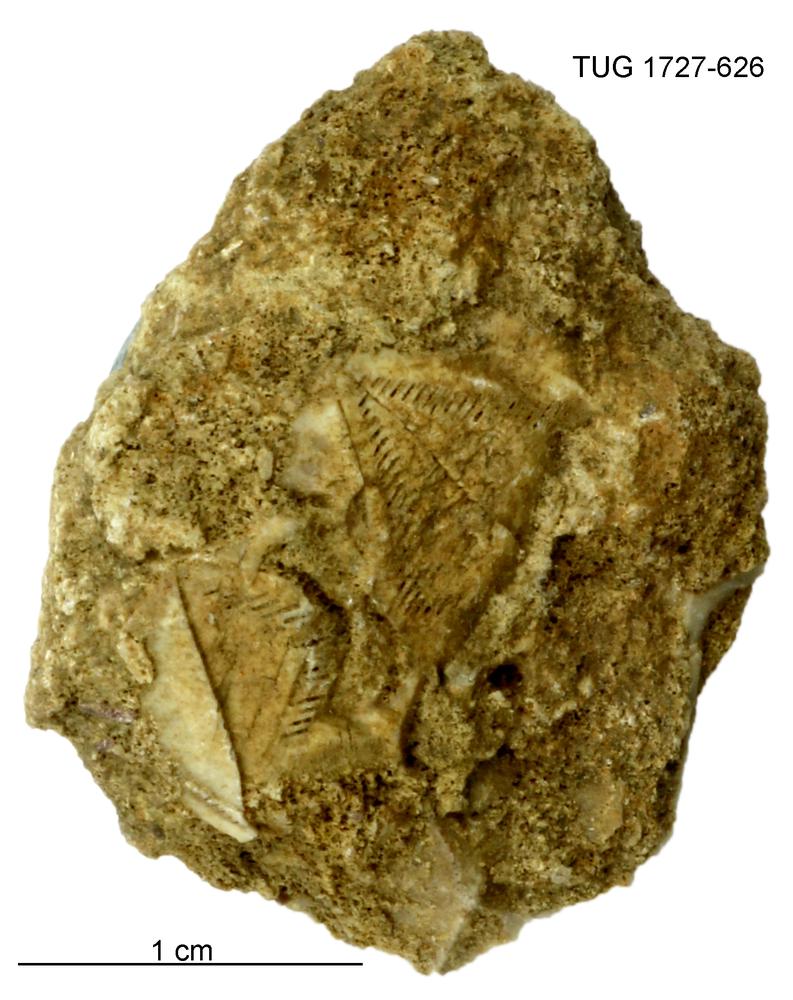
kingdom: Animalia
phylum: Echinodermata
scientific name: Echinodermata
